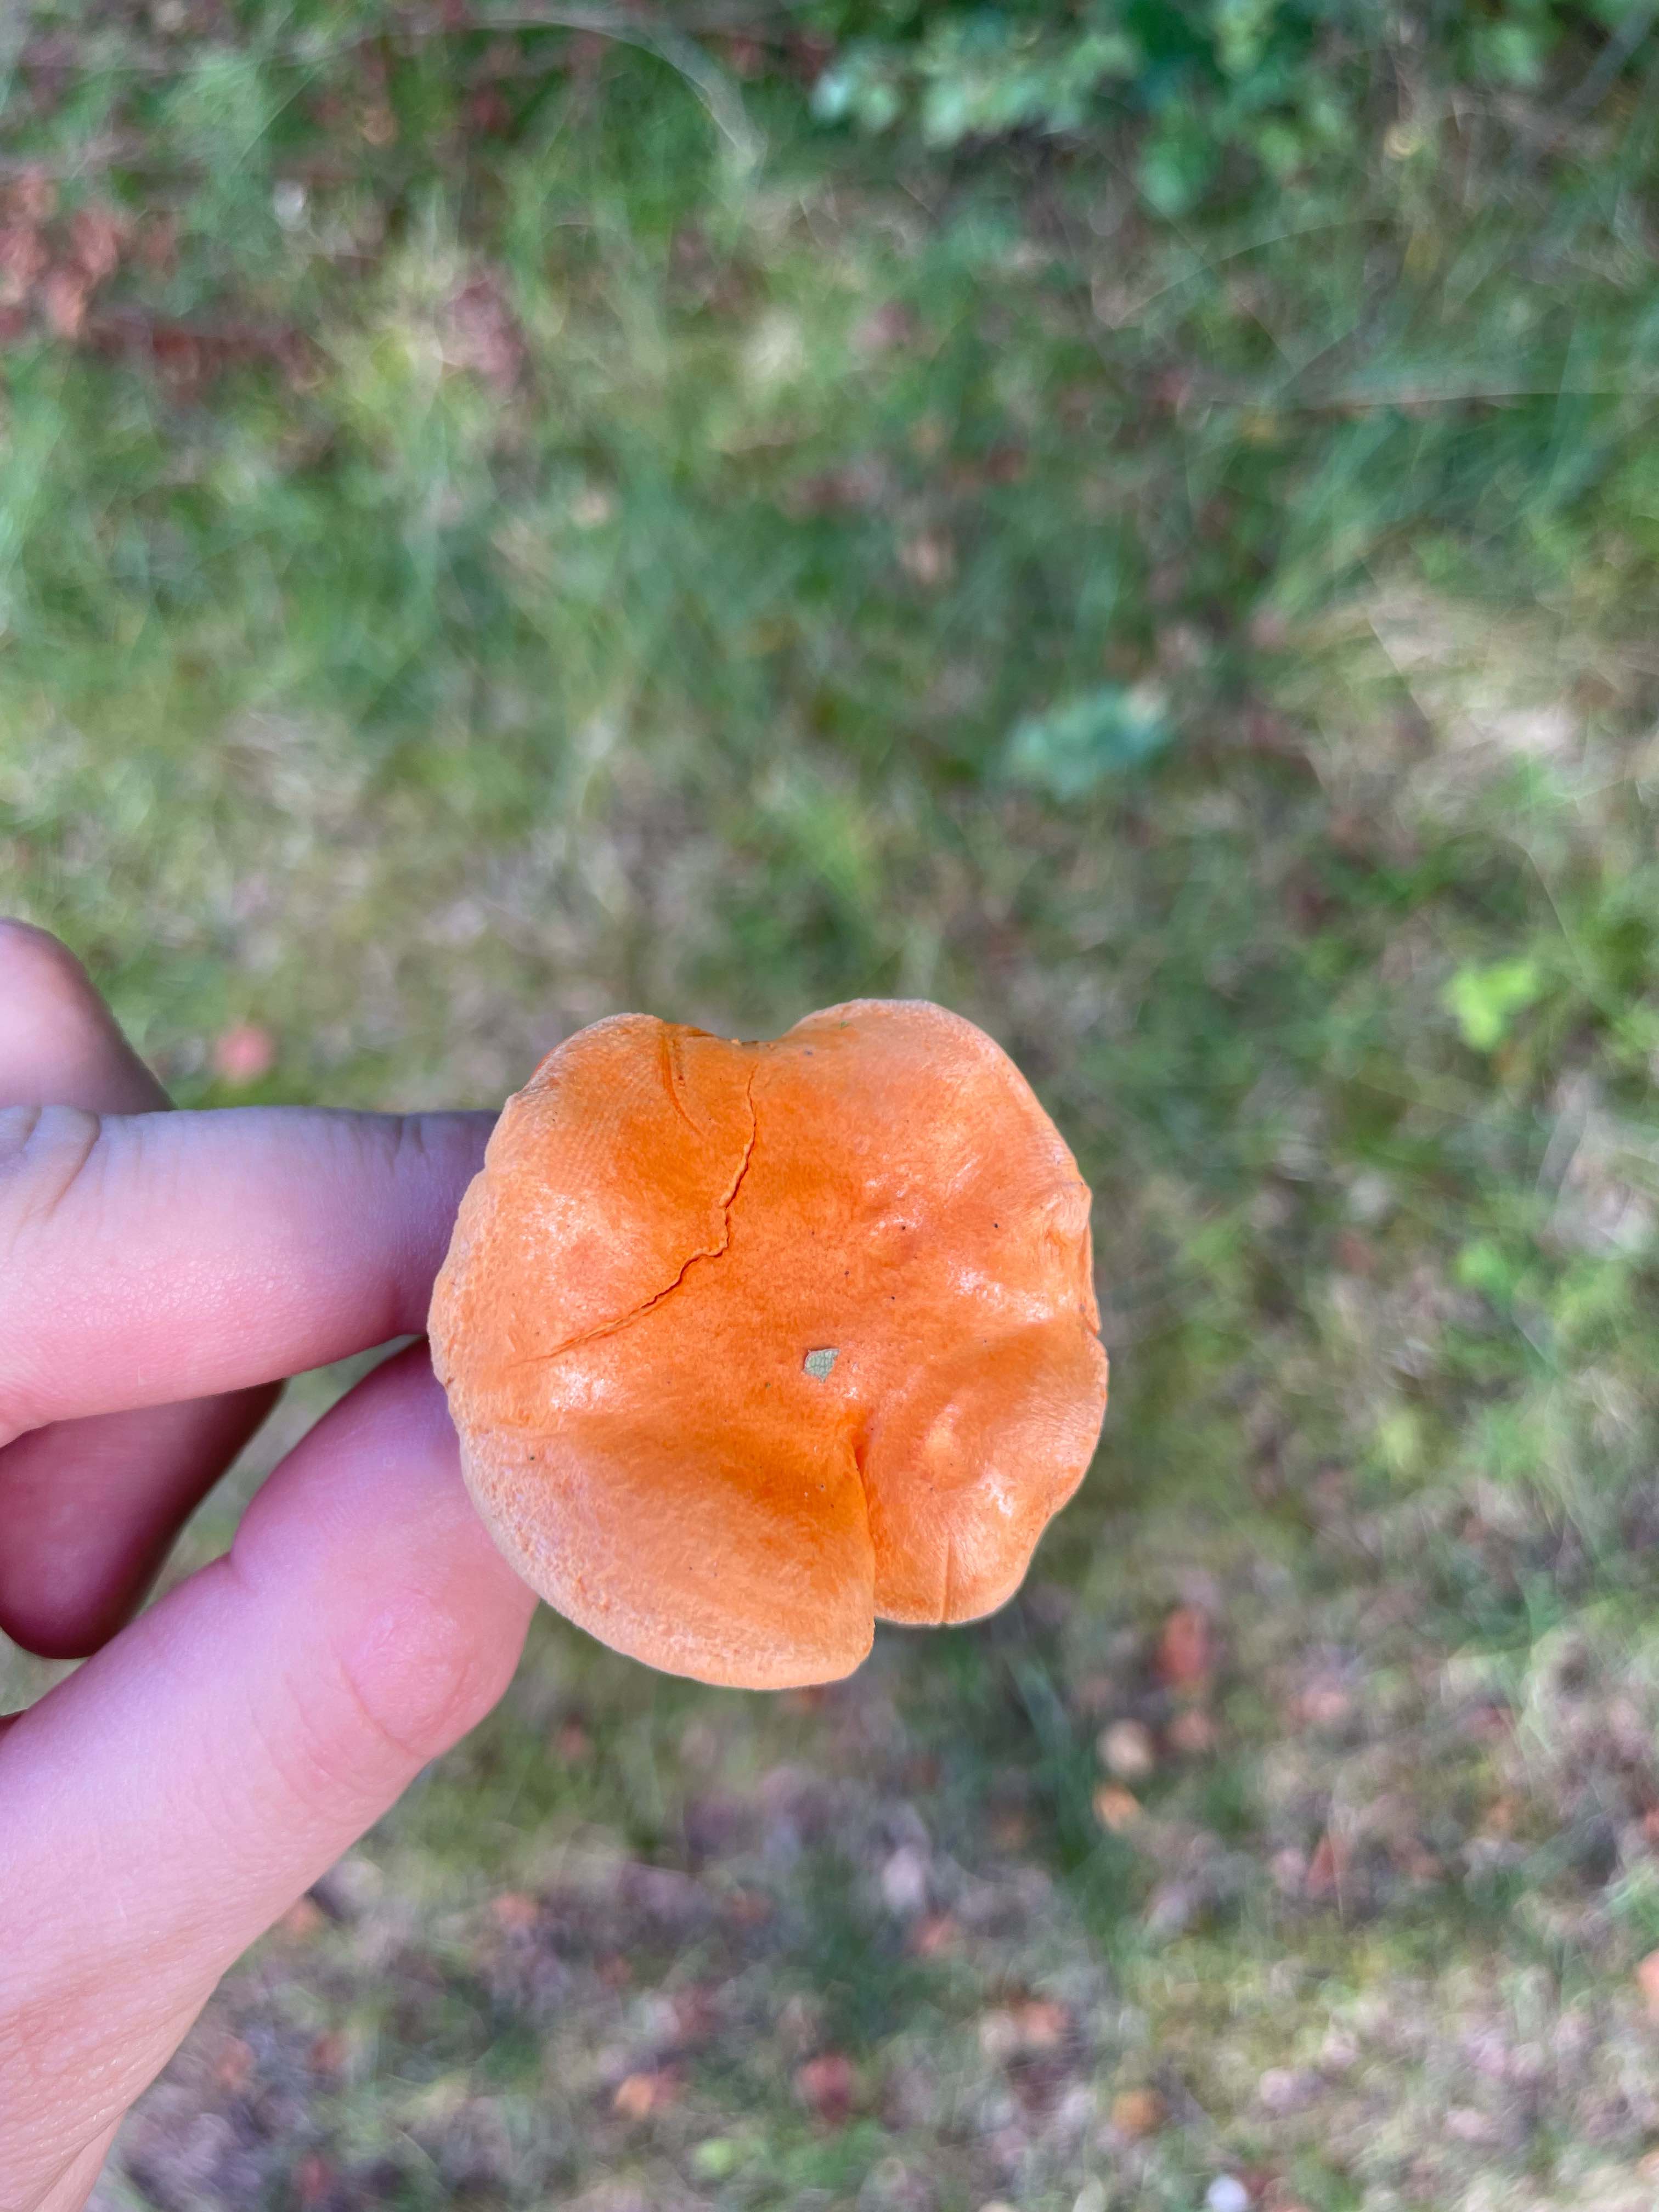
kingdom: Fungi
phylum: Basidiomycota
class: Agaricomycetes
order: Boletales
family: Hygrophoropsidaceae
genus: Hygrophoropsis
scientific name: Hygrophoropsis aurantiaca
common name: almindelig orangekantarel
